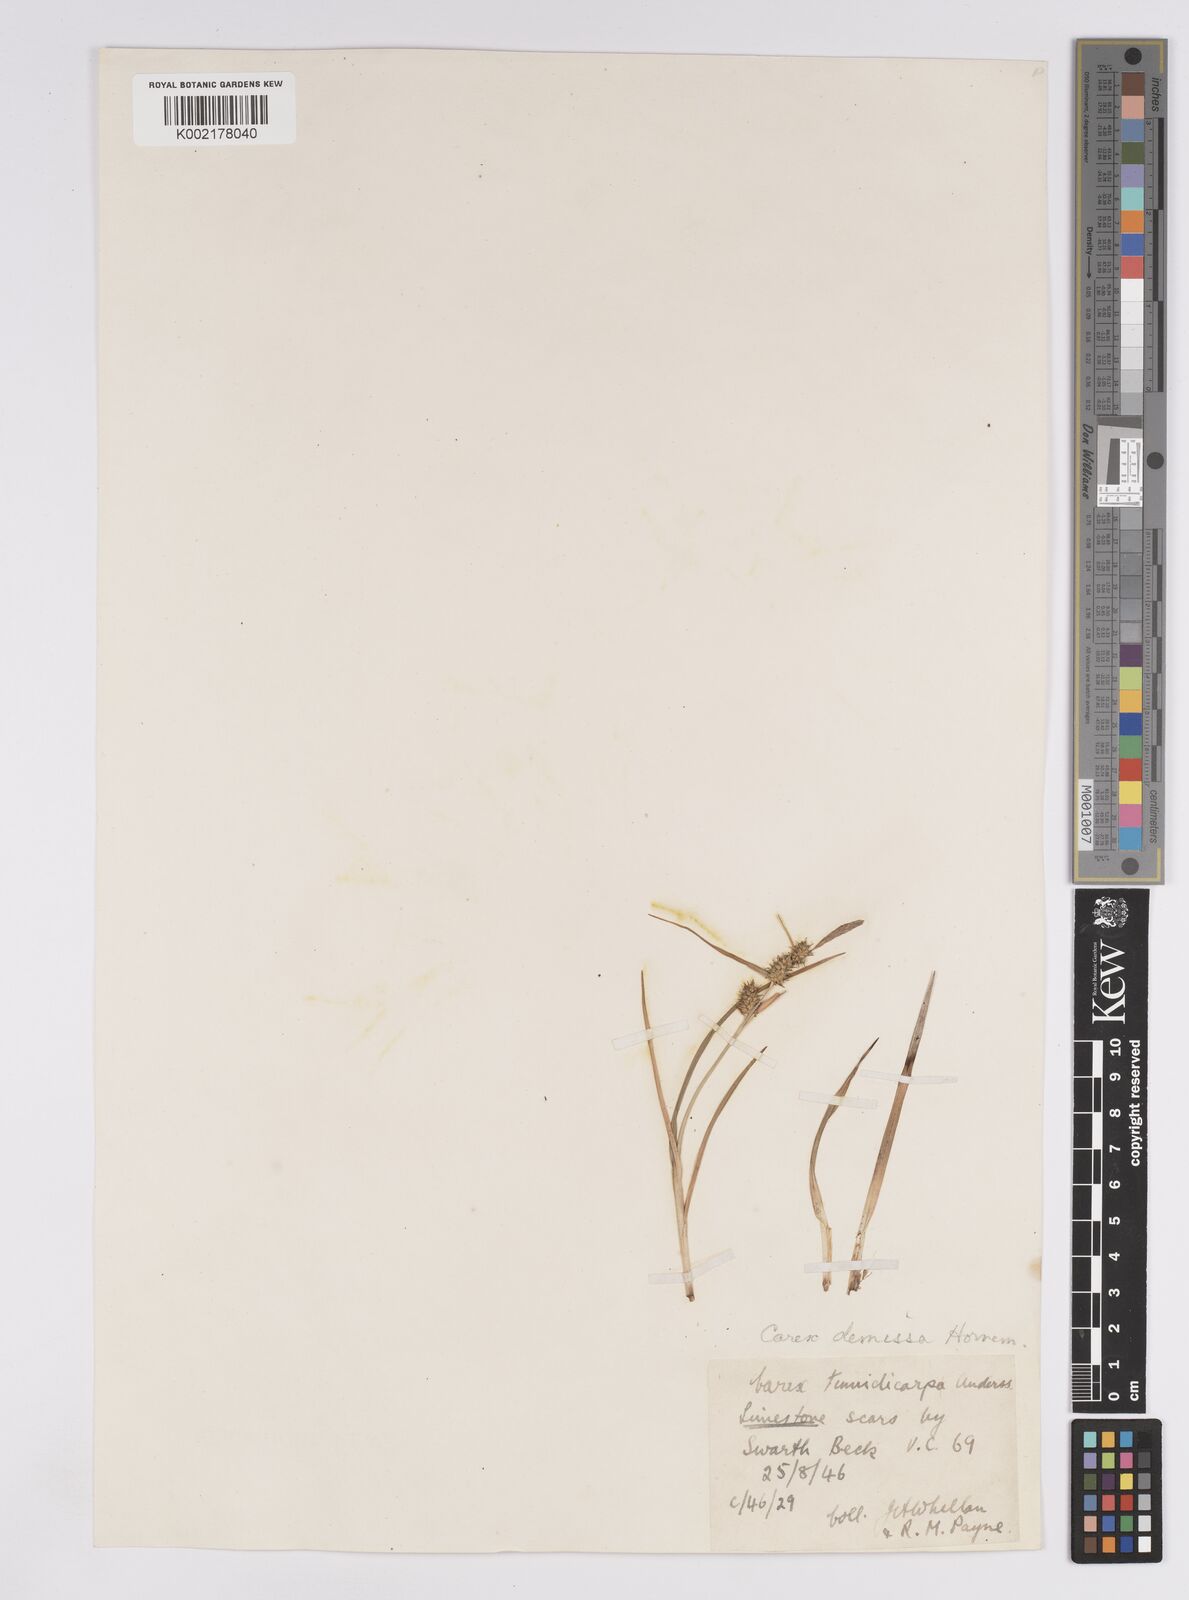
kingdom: Plantae
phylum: Tracheophyta
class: Liliopsida
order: Poales
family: Cyperaceae
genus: Carex
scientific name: Carex demissa
